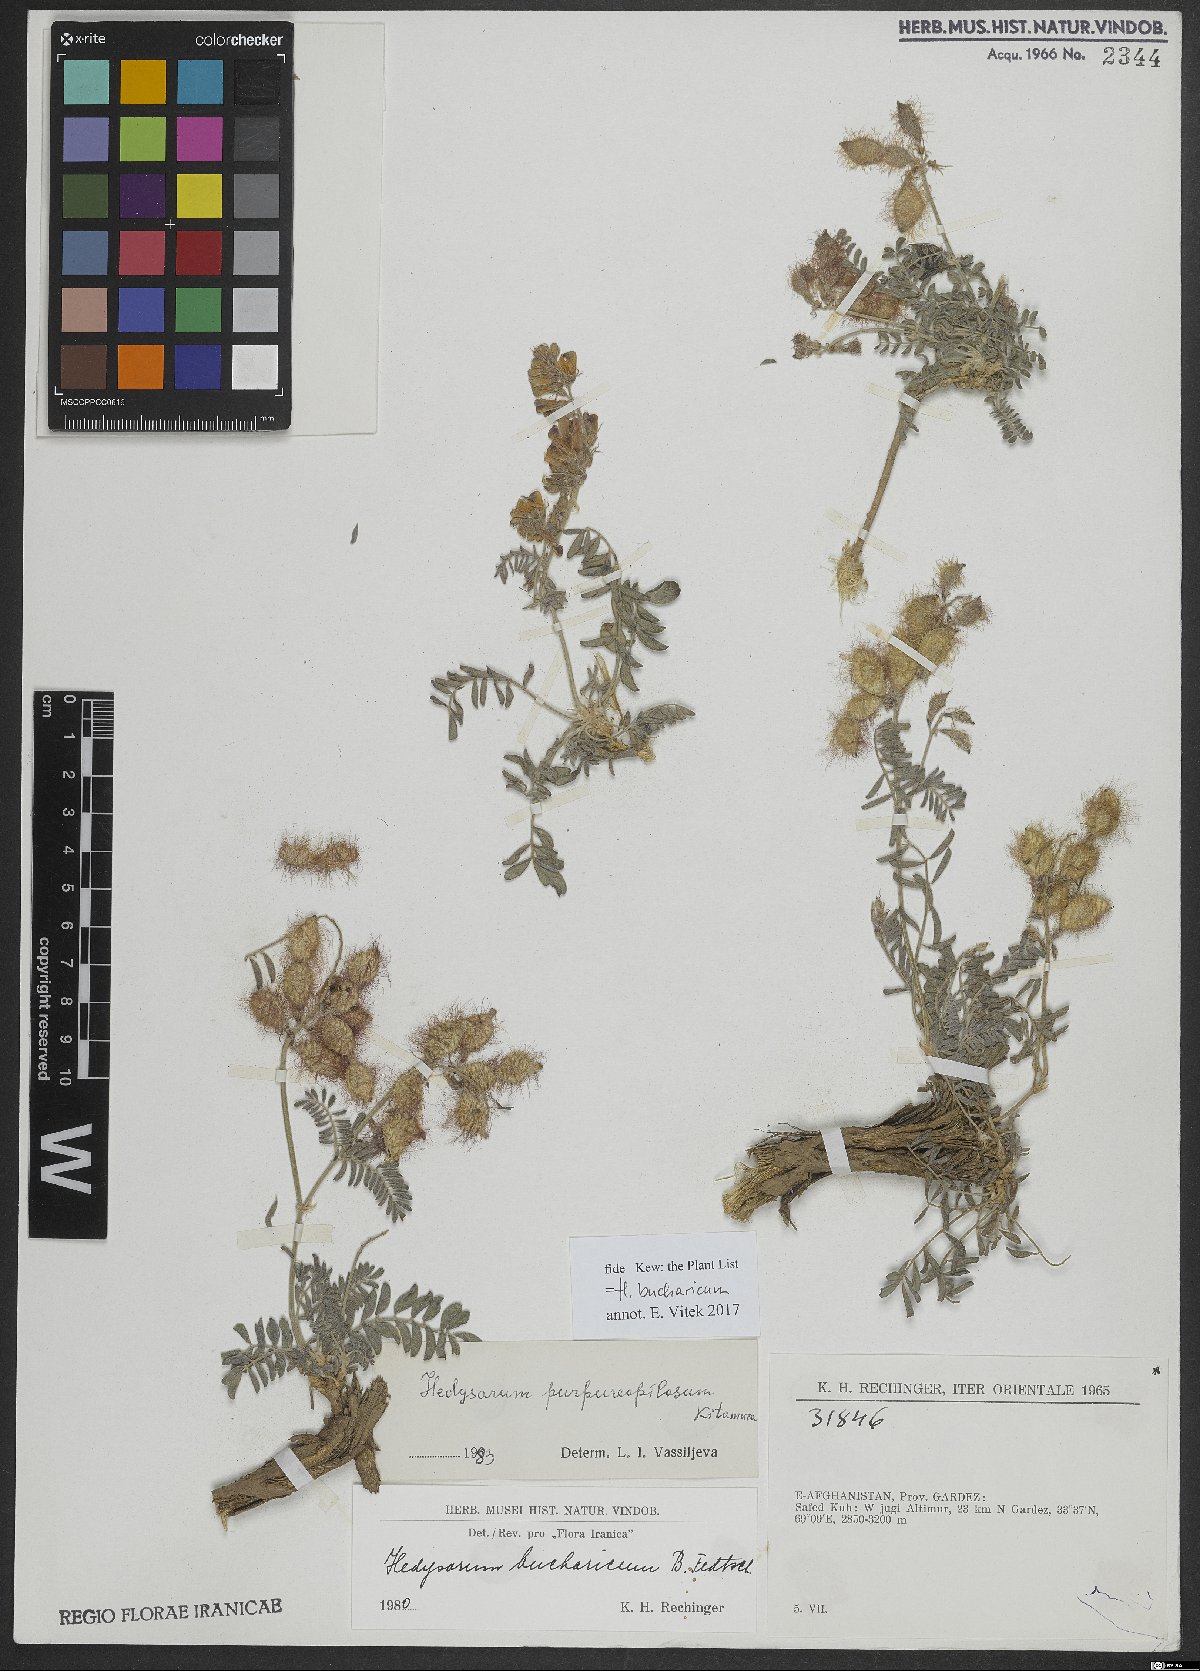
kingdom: Plantae
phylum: Tracheophyta
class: Magnoliopsida
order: Fabales
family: Fabaceae
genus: Hedysarum
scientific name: Hedysarum bucharicum
